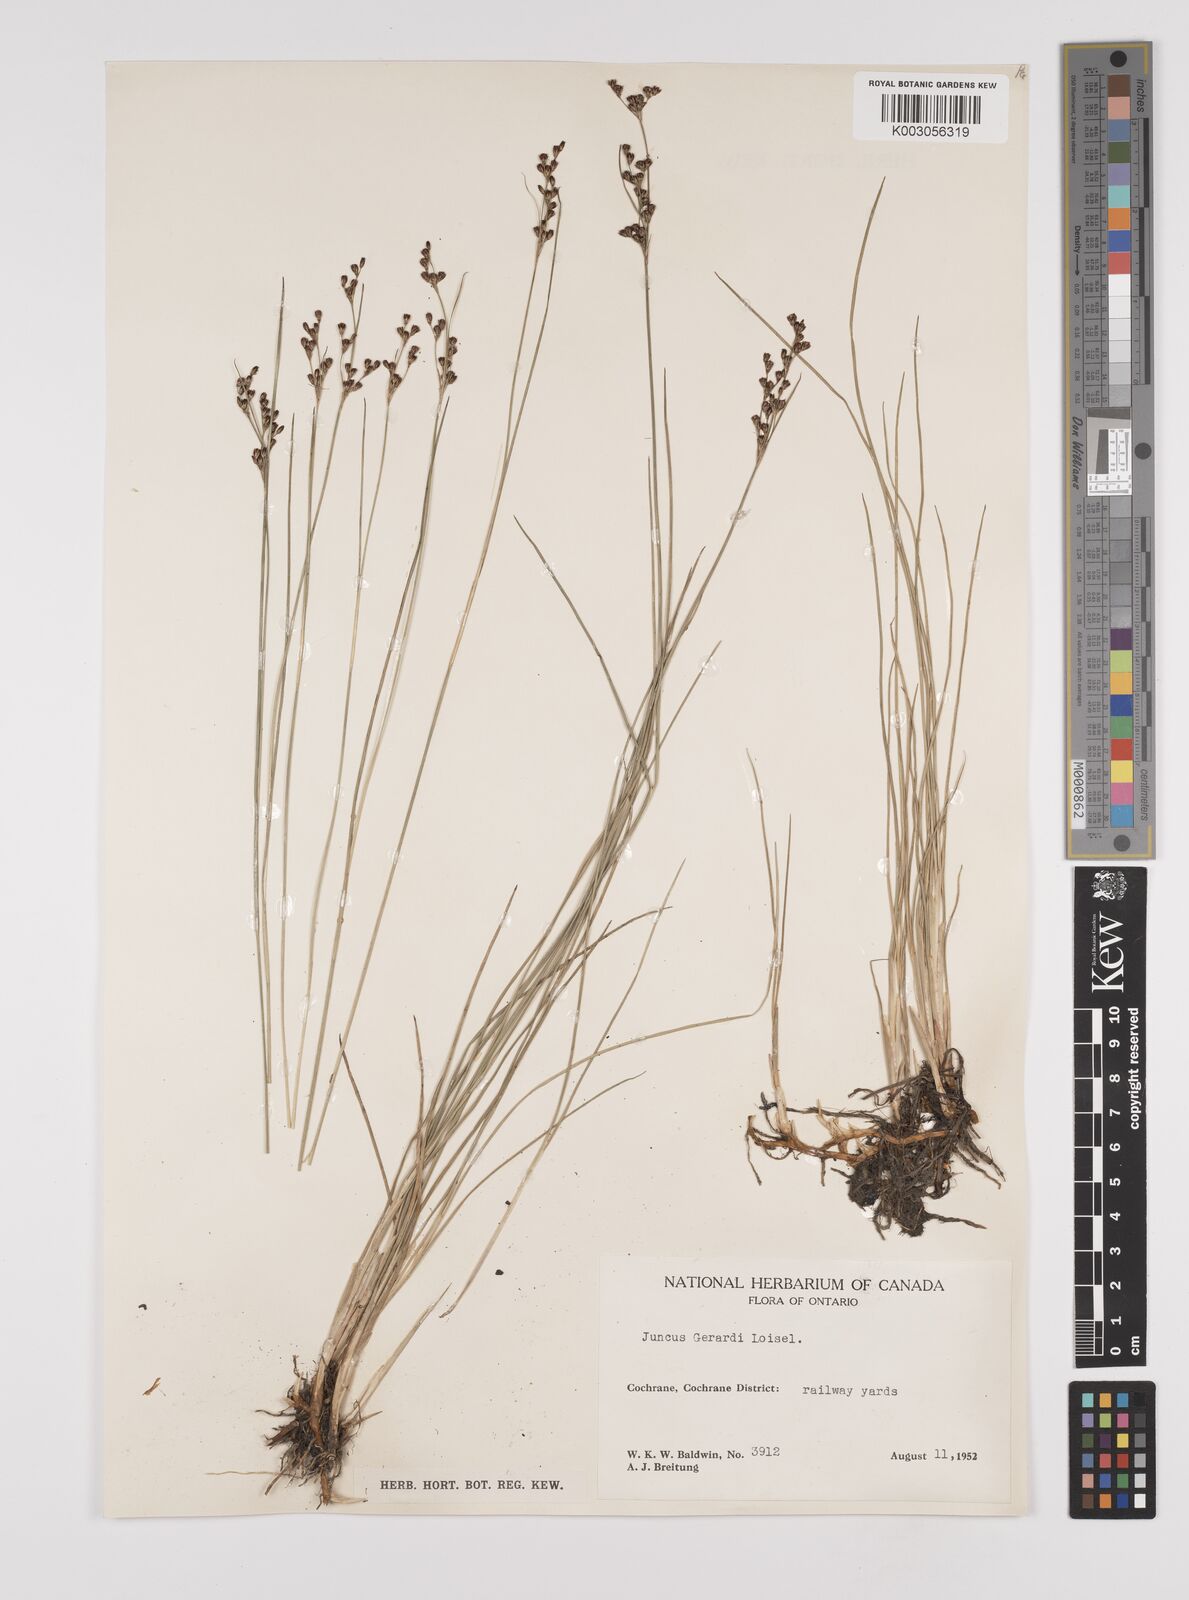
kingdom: Plantae
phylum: Tracheophyta
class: Liliopsida
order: Poales
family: Juncaceae
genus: Juncus
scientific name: Juncus gerardi
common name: Saltmarsh rush
